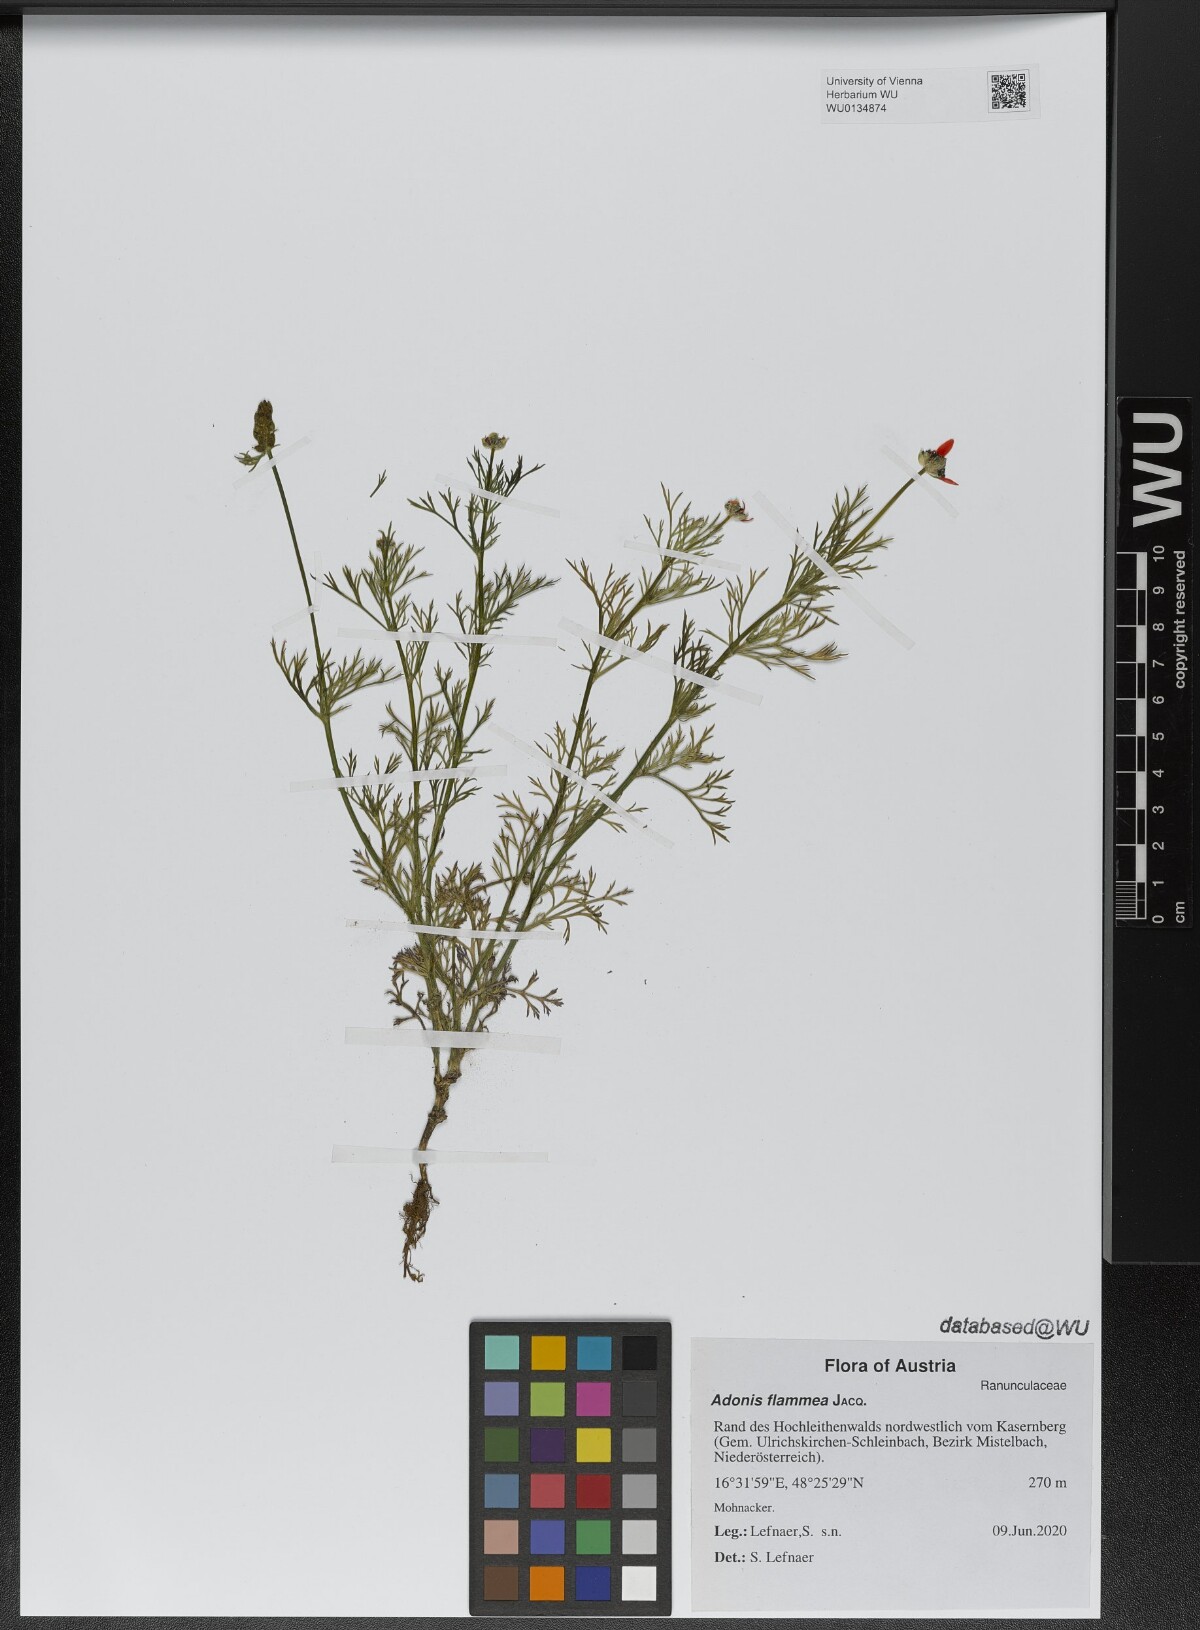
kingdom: Plantae
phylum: Tracheophyta
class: Magnoliopsida
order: Ranunculales
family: Ranunculaceae
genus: Adonis
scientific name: Adonis flammea
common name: Large pheasant's-eye
